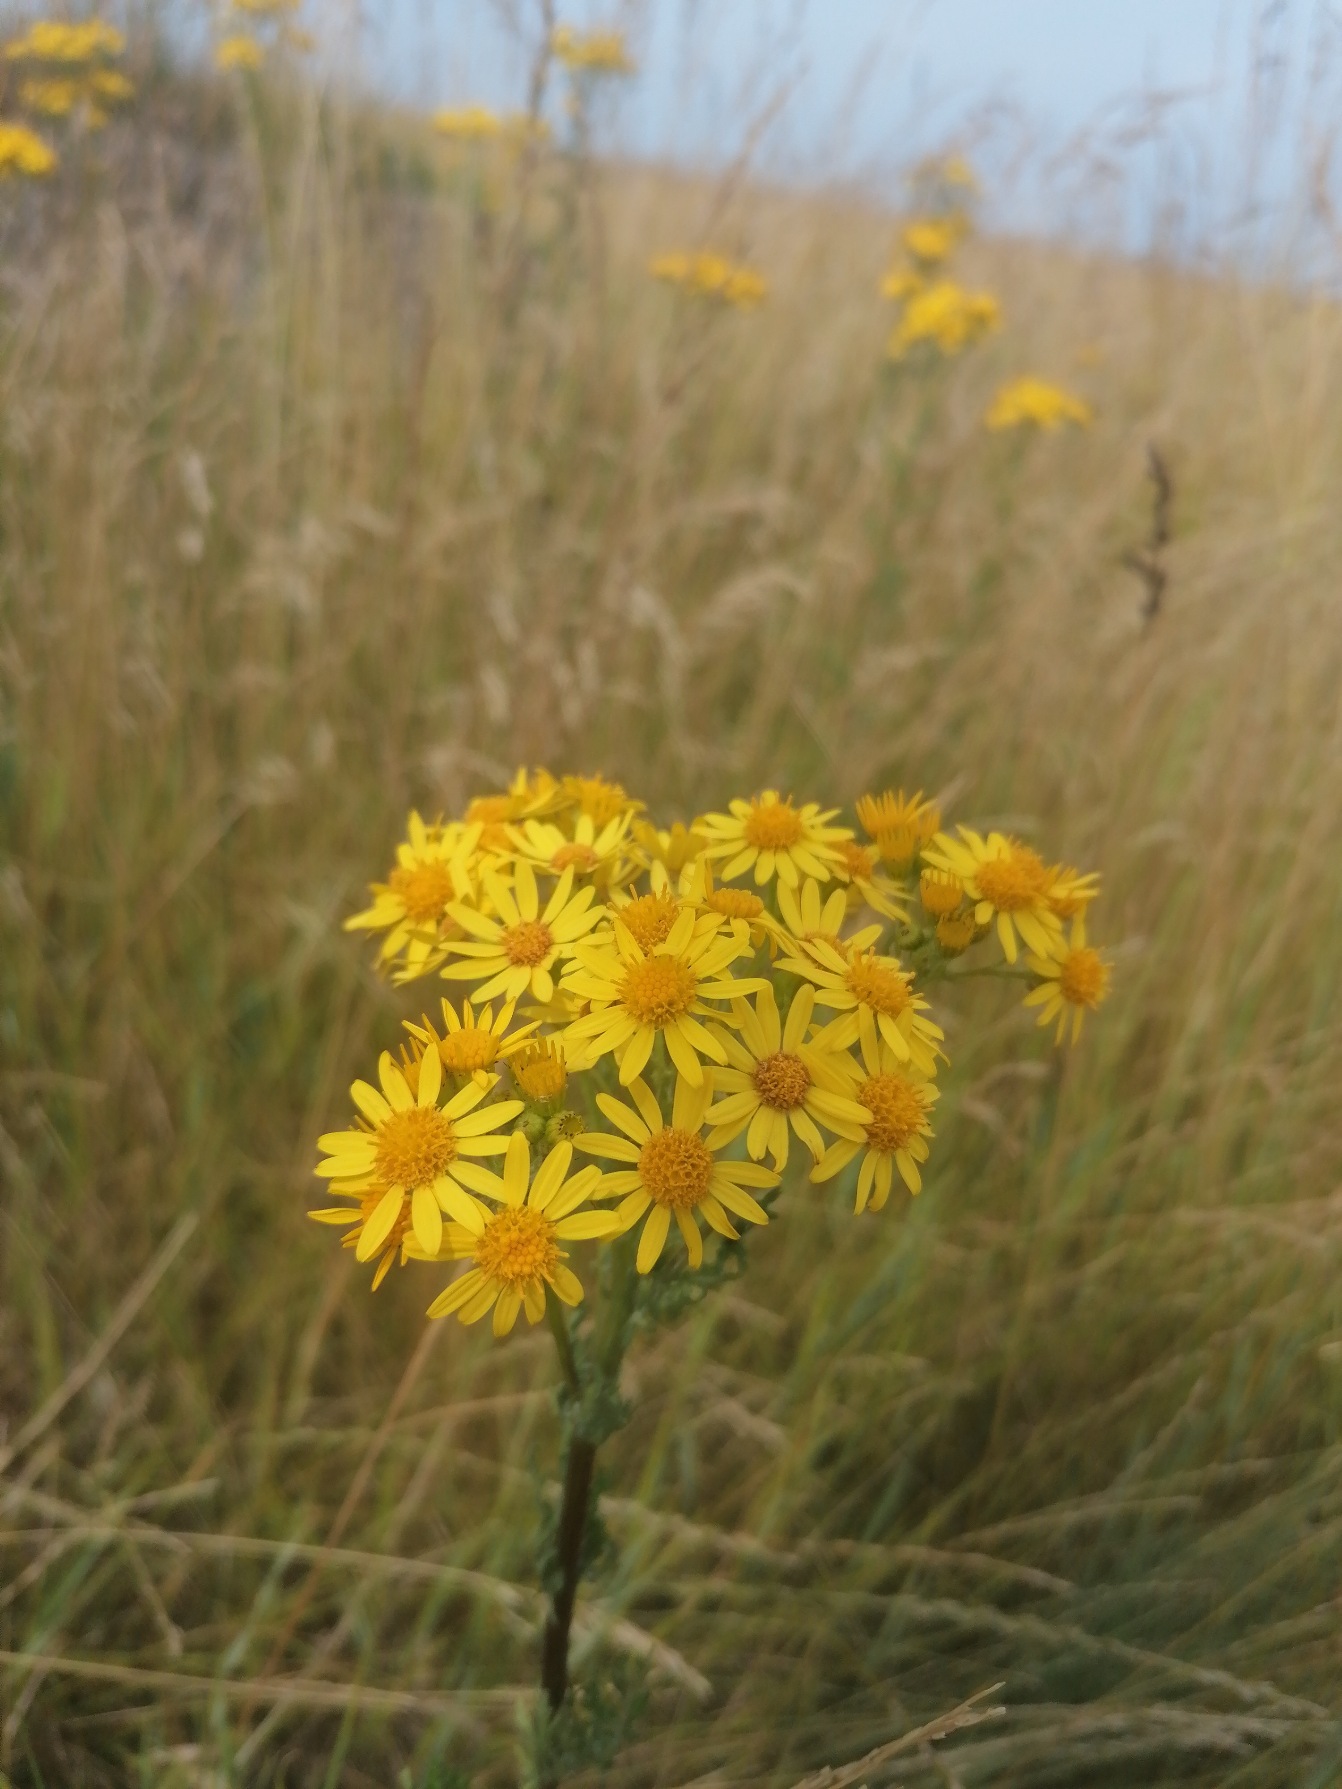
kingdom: Plantae
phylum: Tracheophyta
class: Magnoliopsida
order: Asterales
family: Asteraceae
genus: Jacobaea
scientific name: Jacobaea vulgaris
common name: Eng-brandbæger
